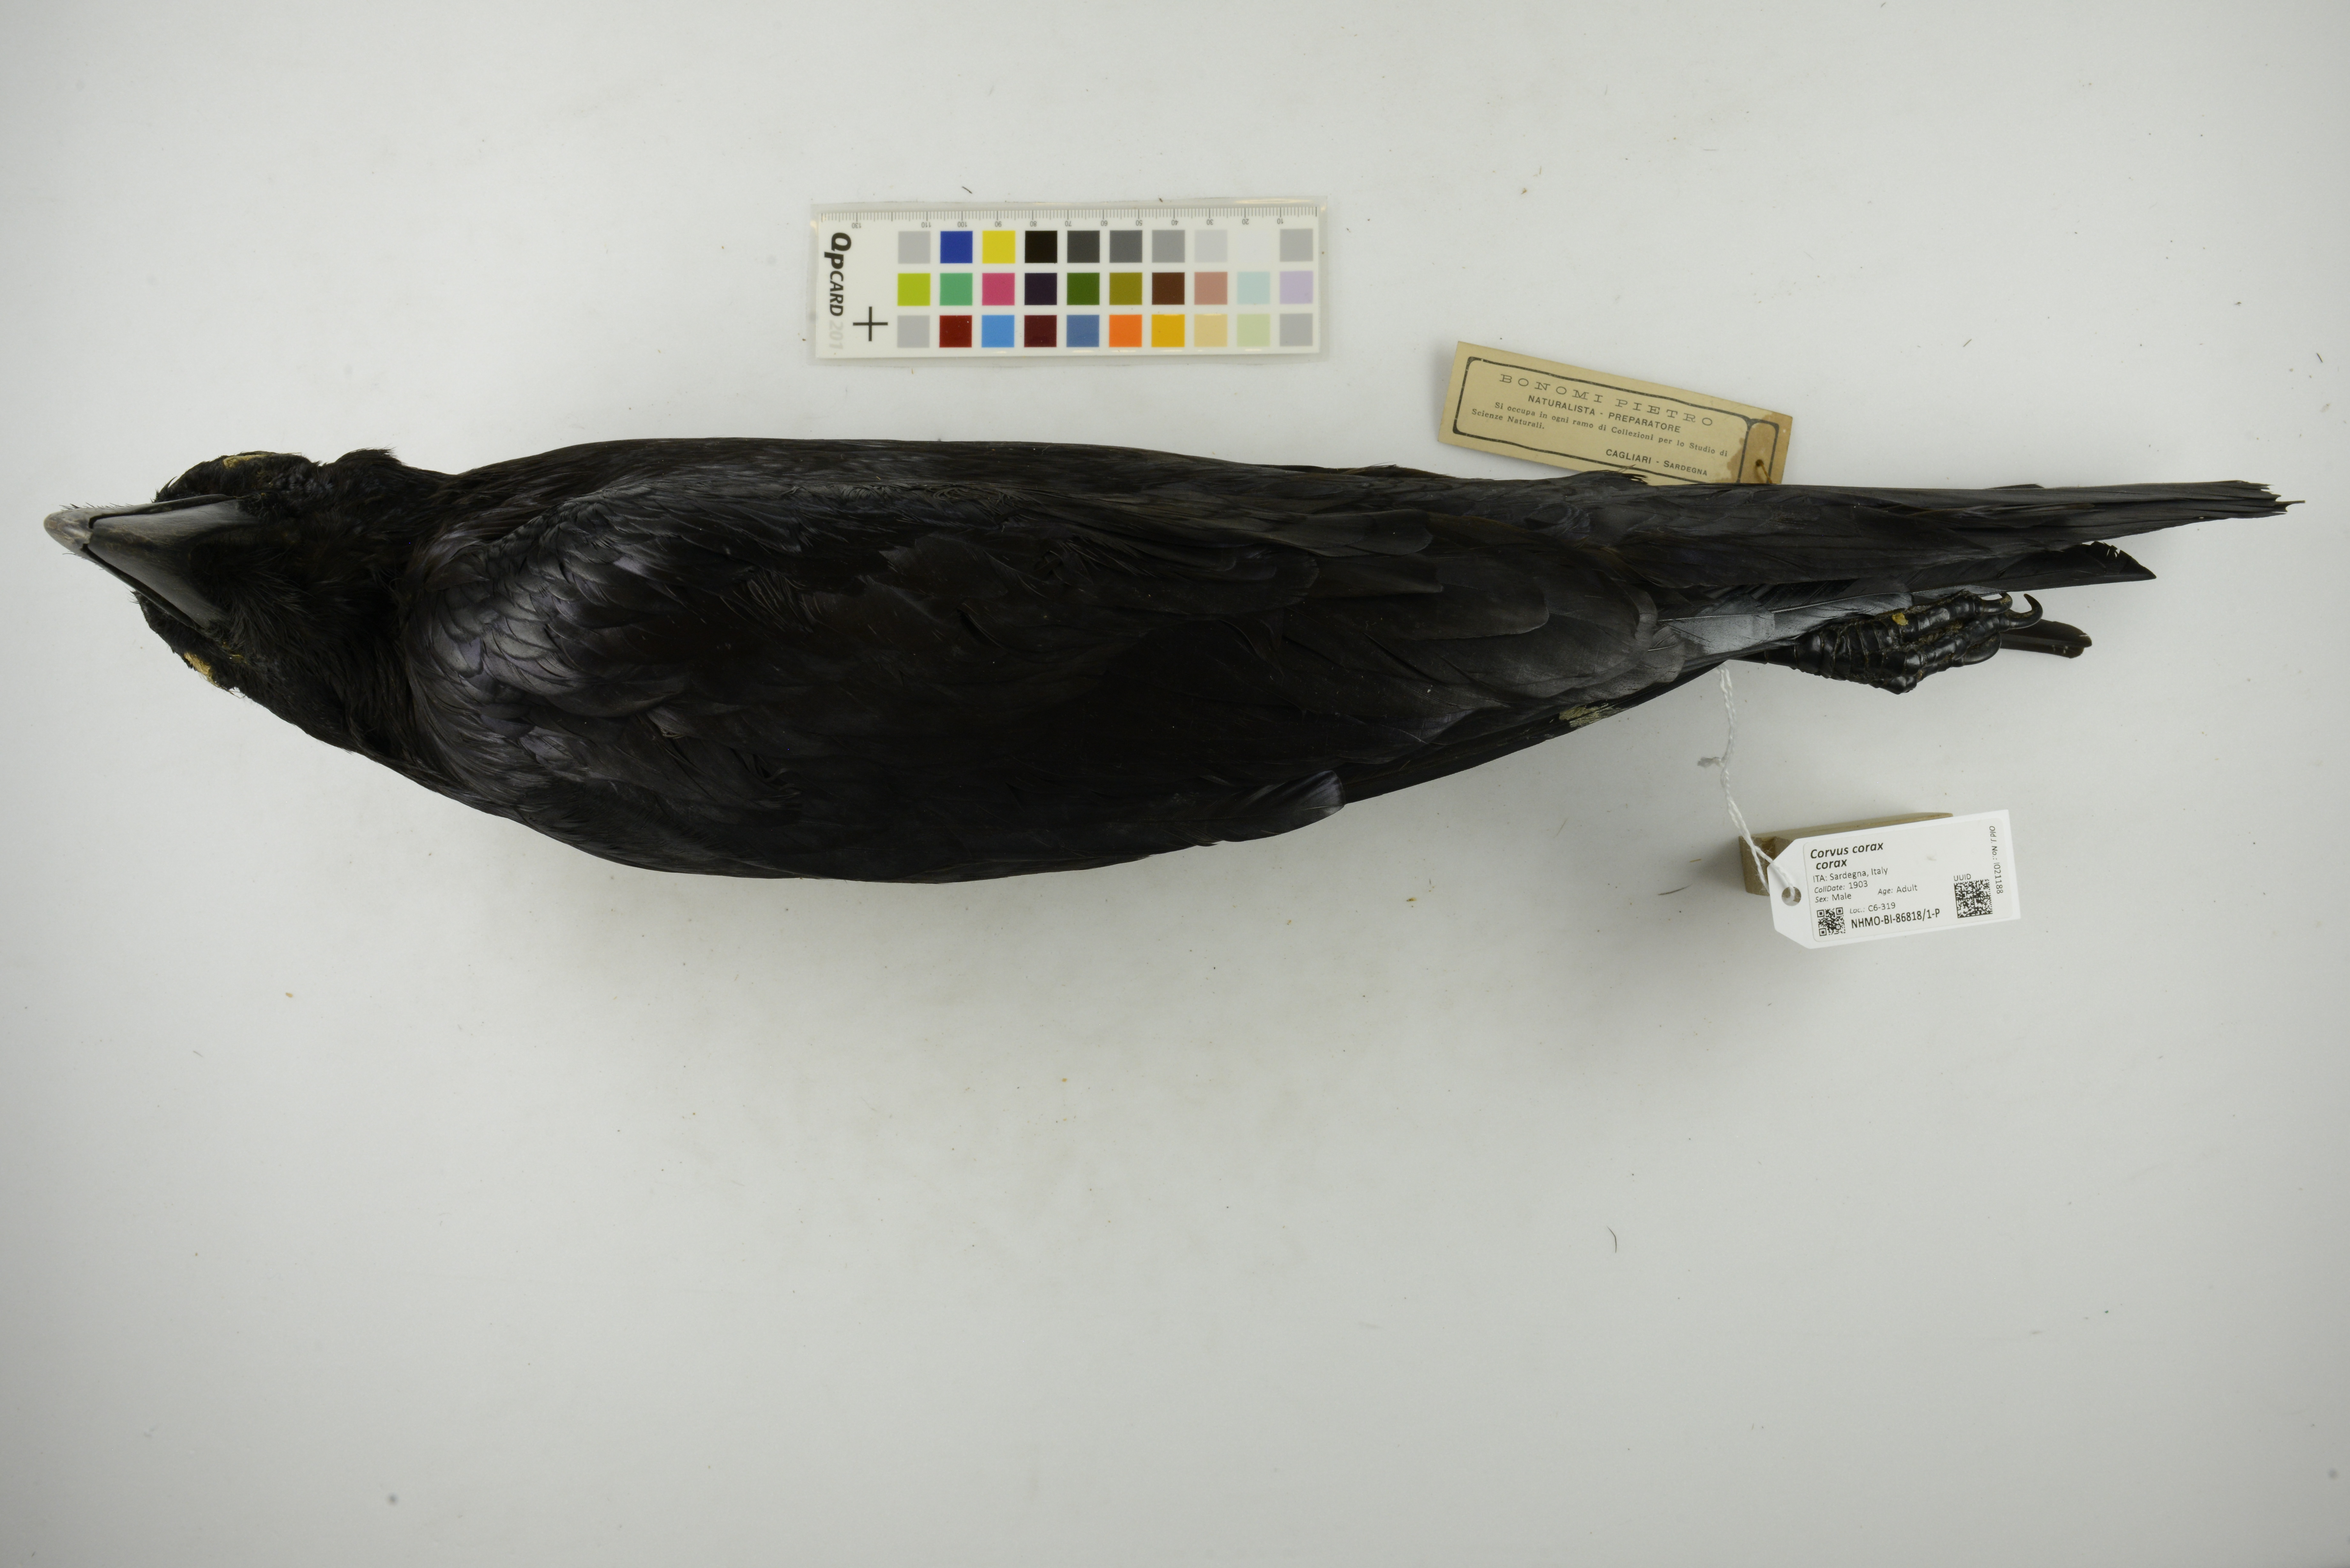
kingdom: Animalia
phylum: Chordata
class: Aves
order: Passeriformes
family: Corvidae
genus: Corvus
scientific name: Corvus corax
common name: Common raven
